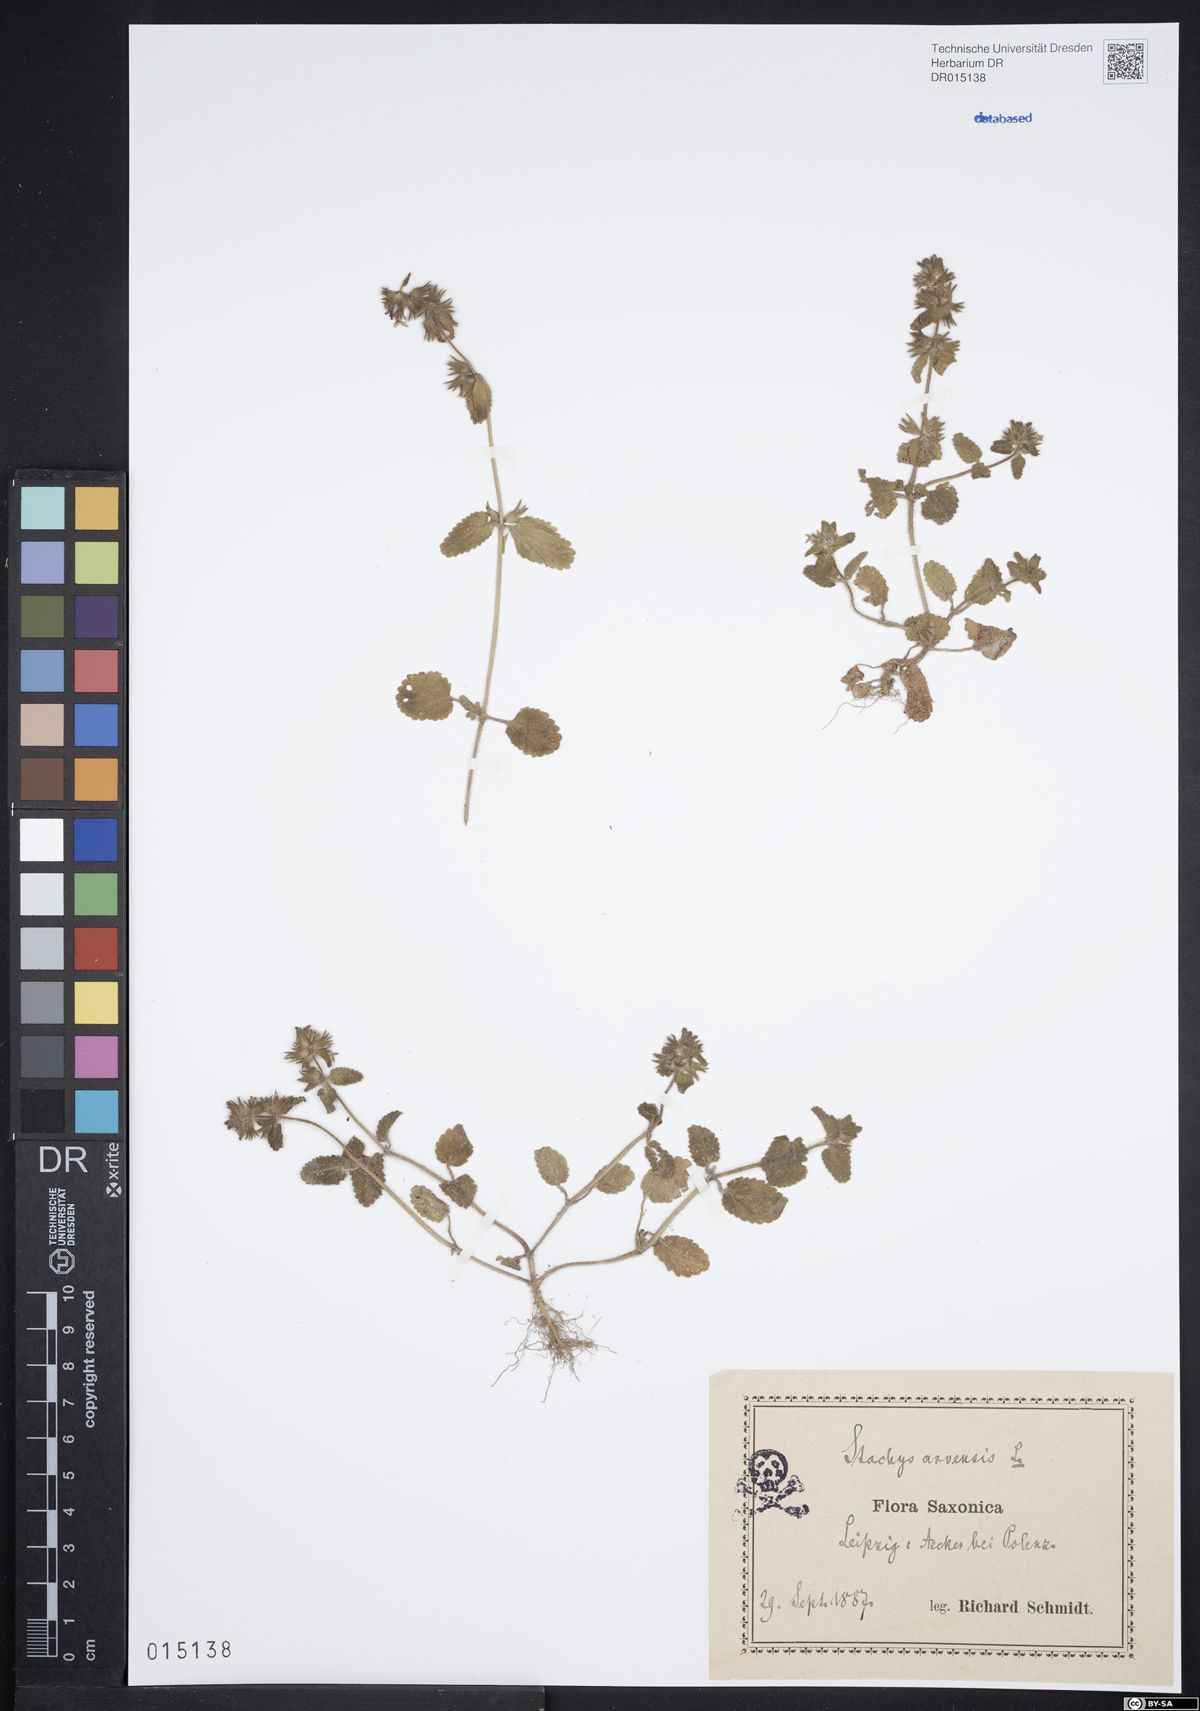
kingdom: Plantae
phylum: Tracheophyta
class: Magnoliopsida
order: Lamiales
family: Lamiaceae
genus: Stachys
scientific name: Stachys arvensis
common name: Field woundwort
